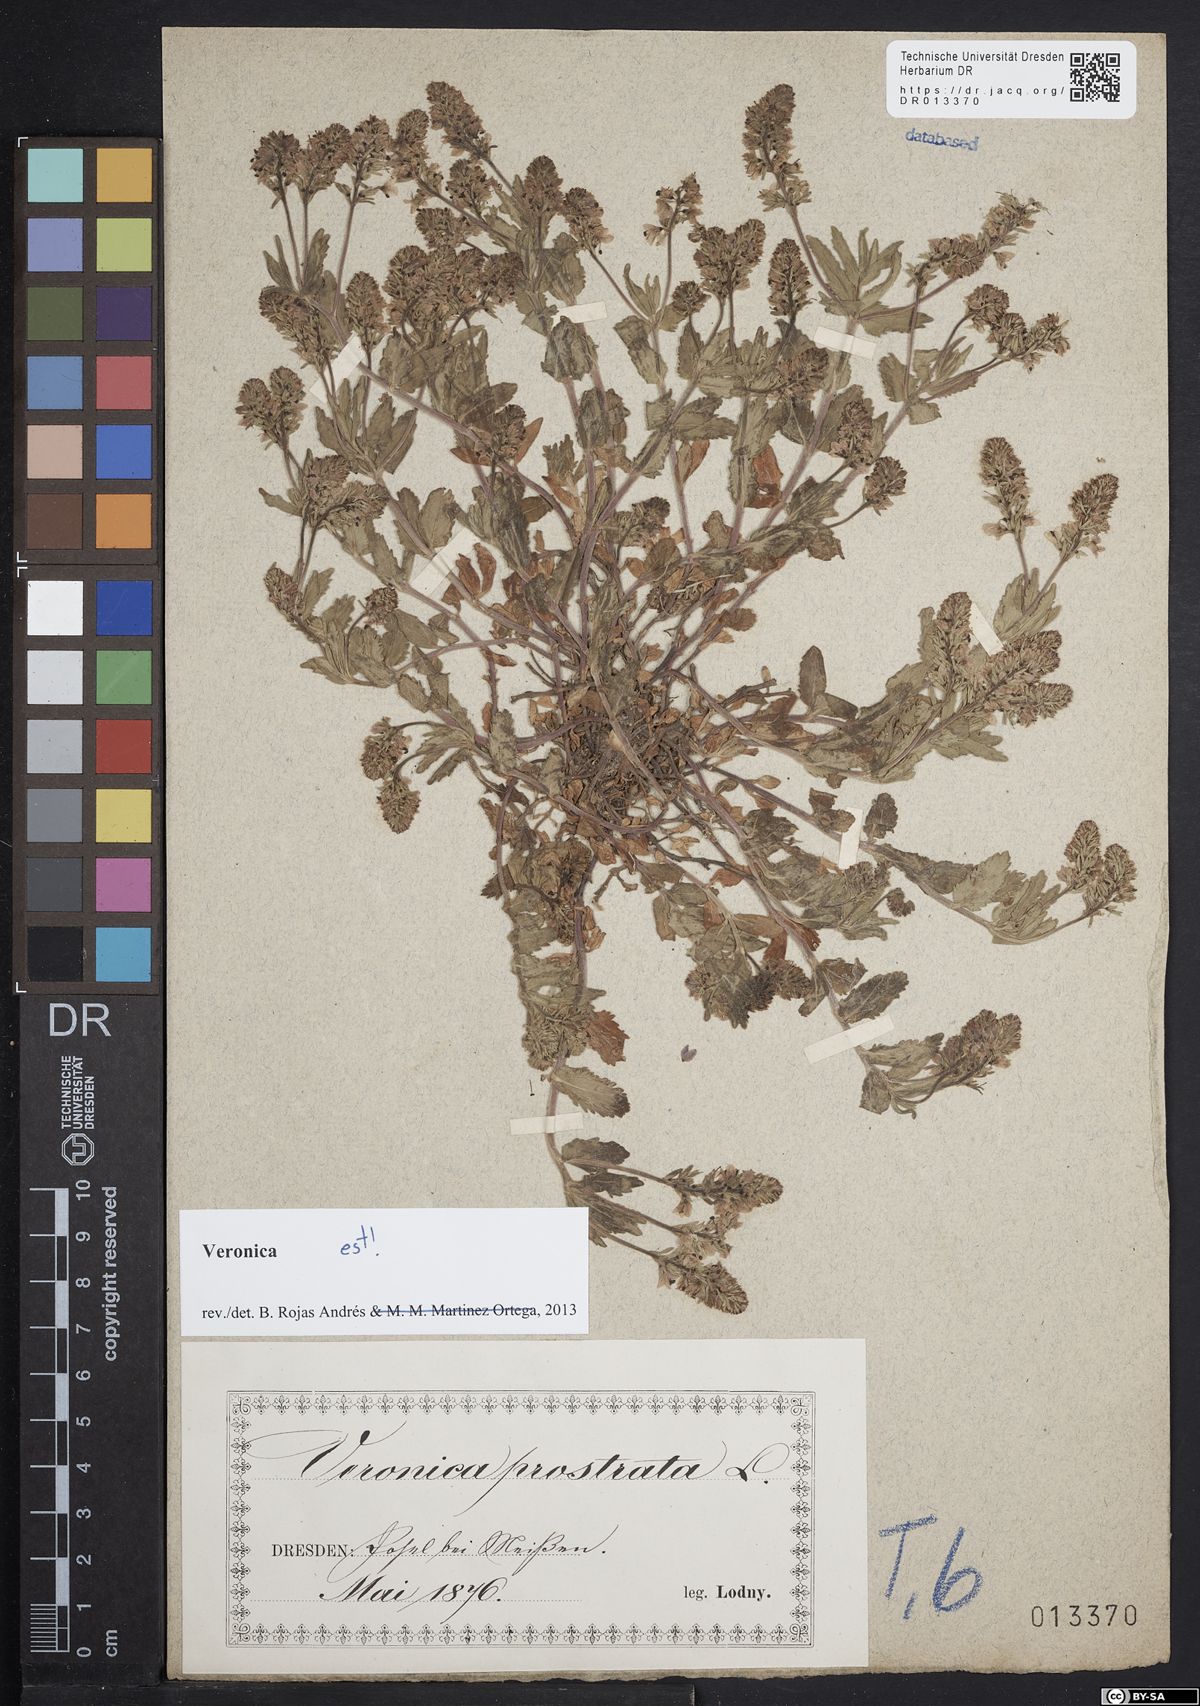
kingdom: Plantae
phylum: Tracheophyta
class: Magnoliopsida
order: Lamiales
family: Plantaginaceae
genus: Veronica
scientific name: Veronica prostrata
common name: Prostrate speedwell
